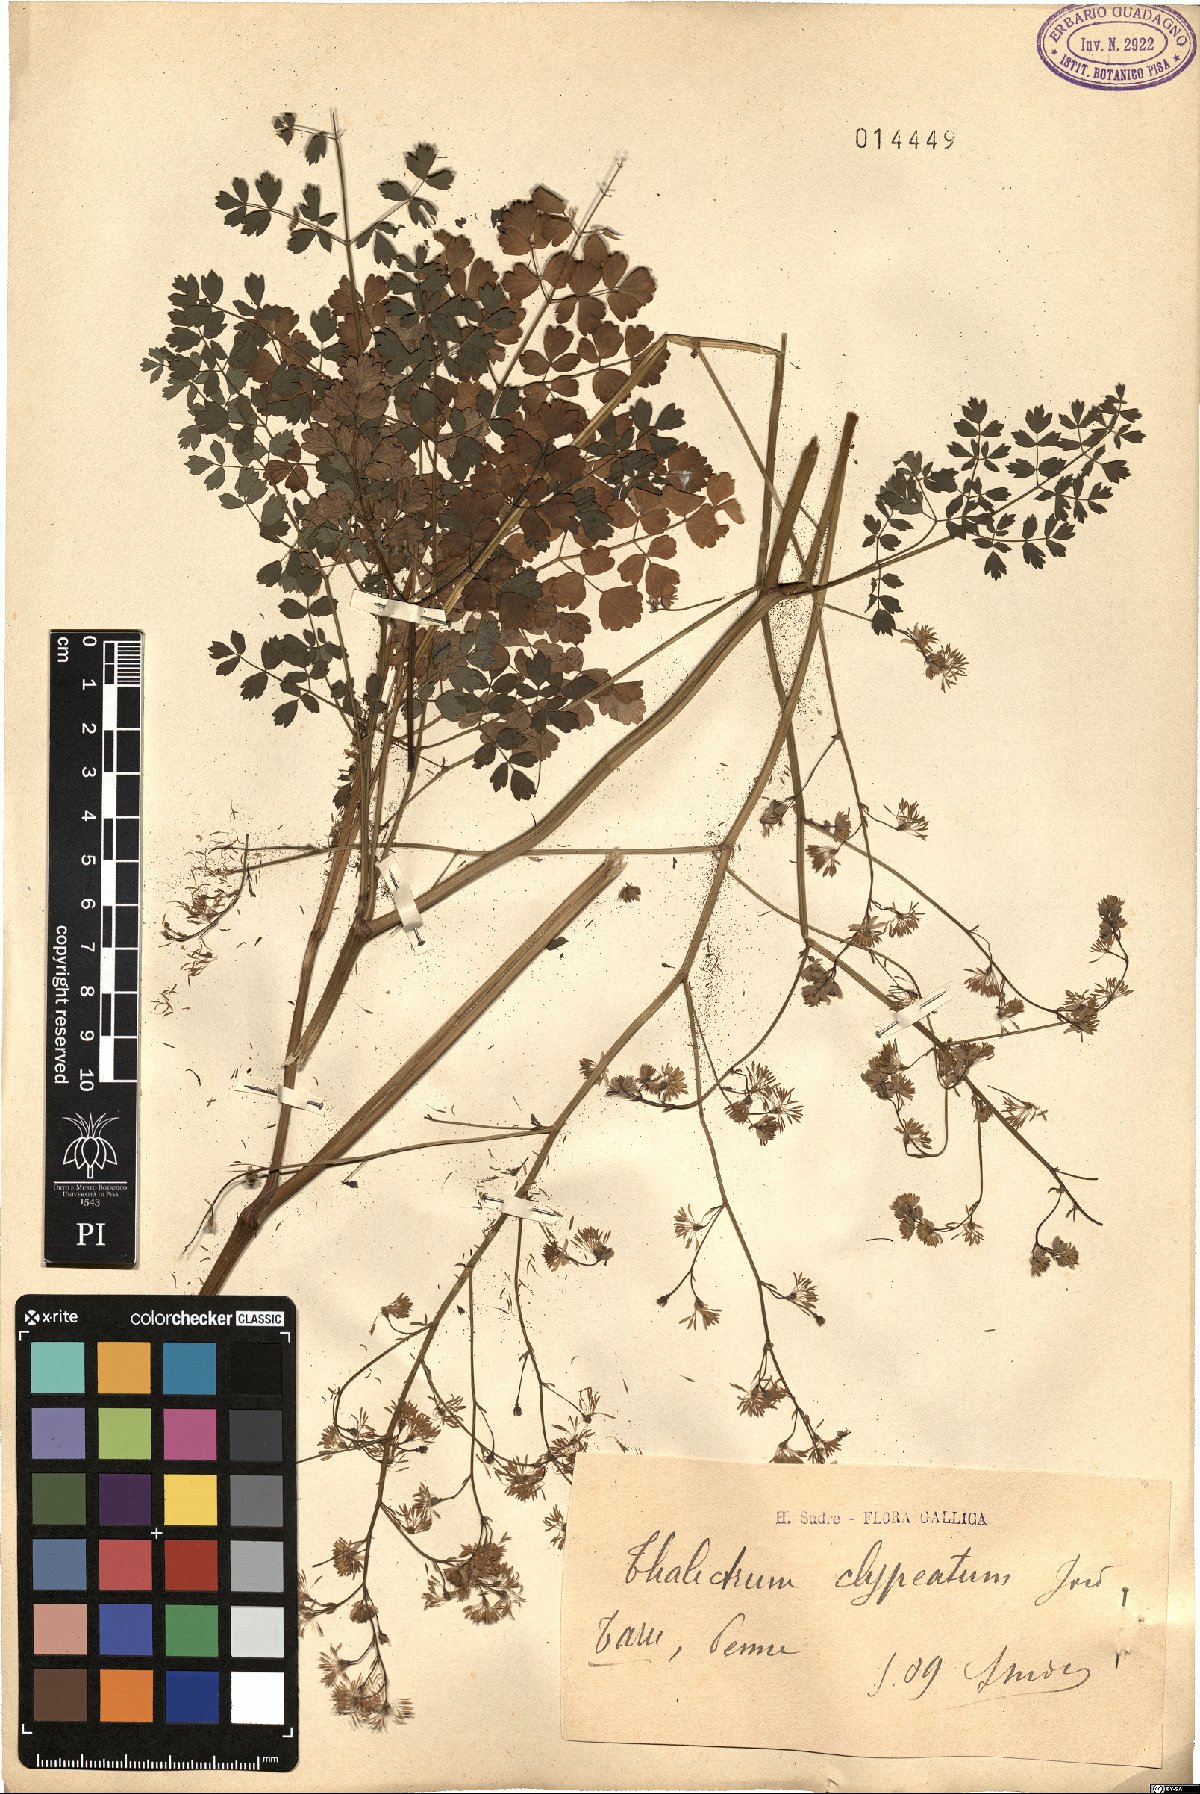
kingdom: Plantae
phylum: Tracheophyta
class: Magnoliopsida
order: Ranunculales
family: Ranunculaceae
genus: Thalictrum
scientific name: Thalictrum minus
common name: Lesser meadow-rue
